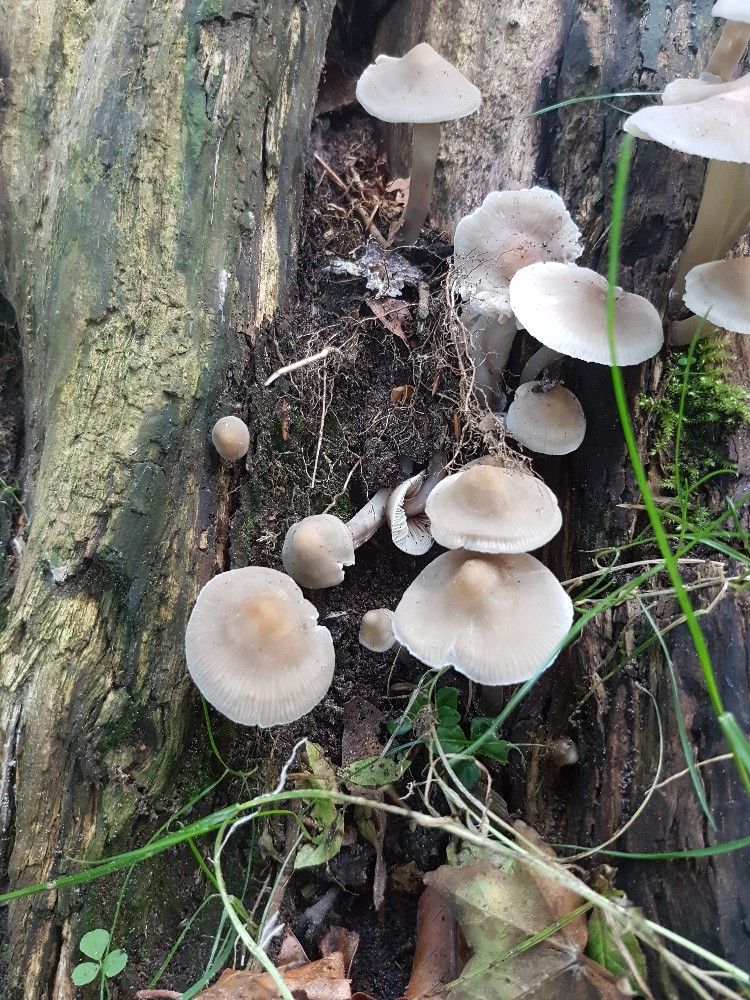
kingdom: Fungi
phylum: Basidiomycota
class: Agaricomycetes
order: Agaricales
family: Mycenaceae
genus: Mycena
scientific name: Mycena galericulata
